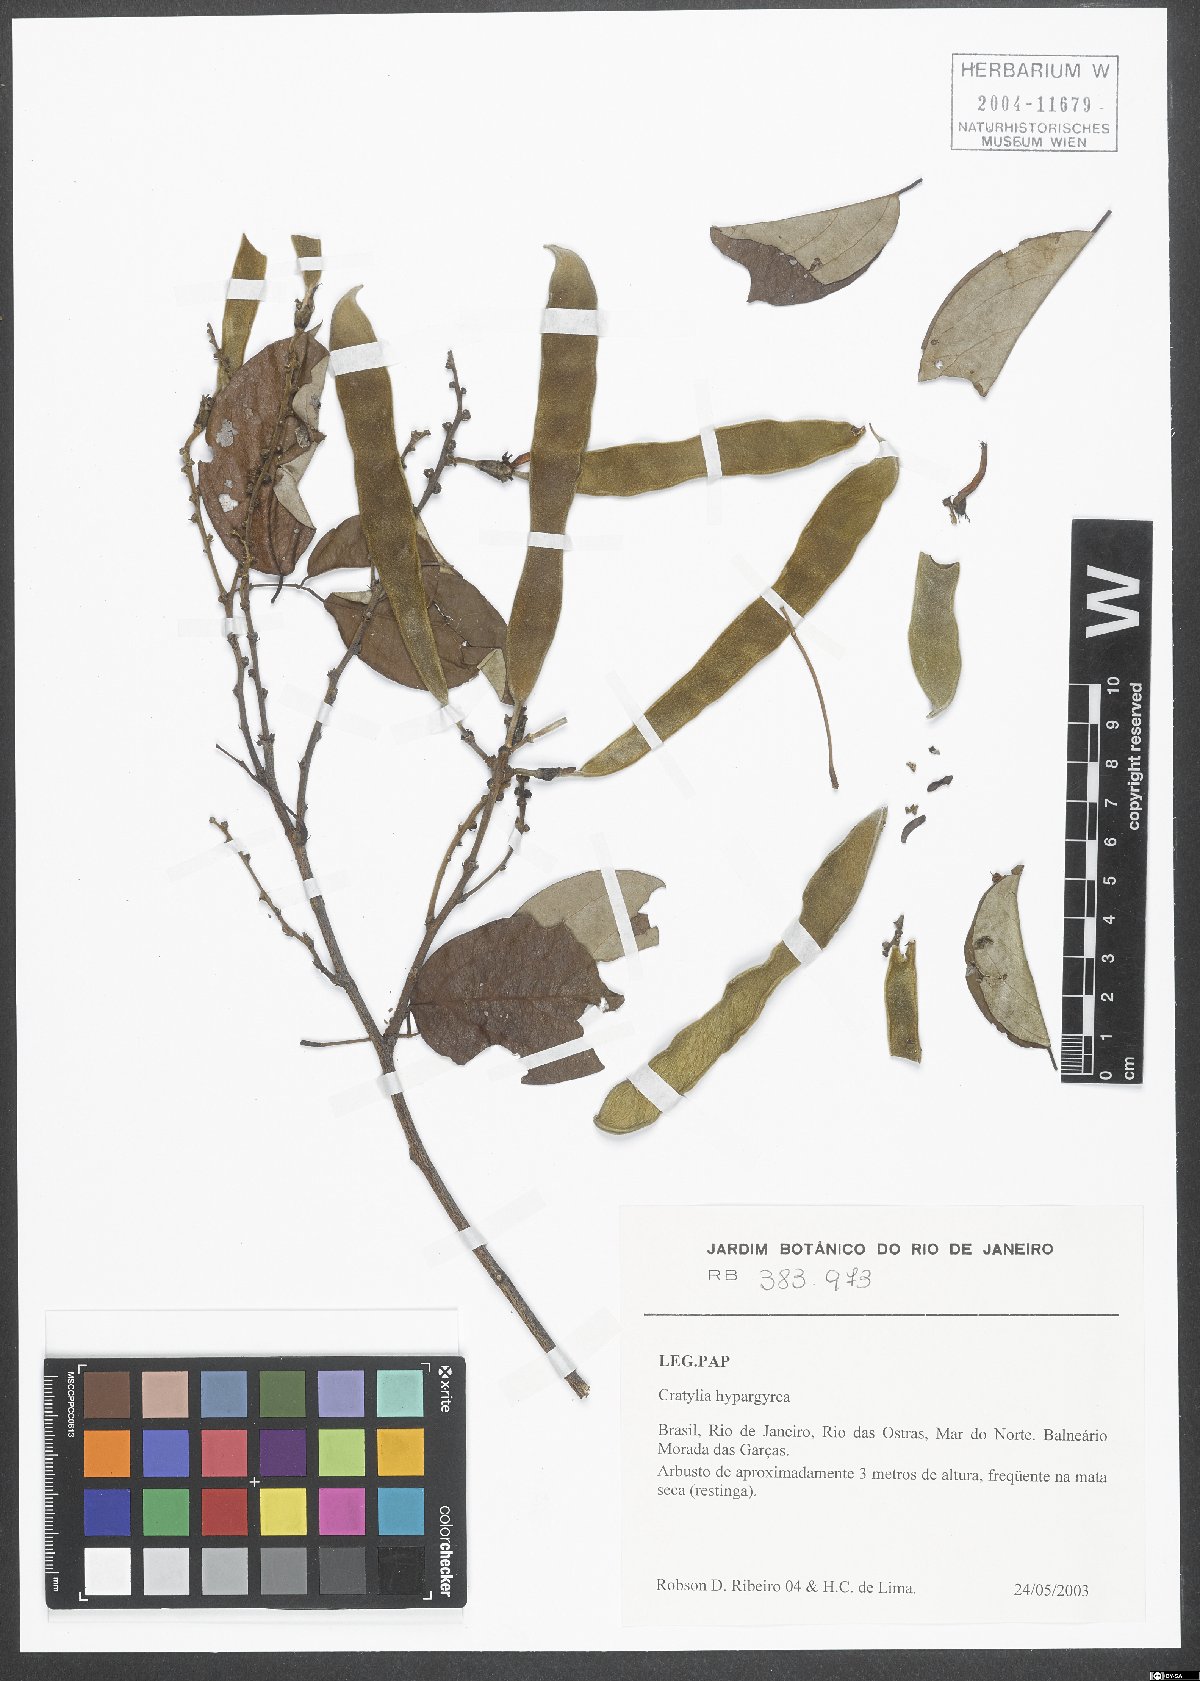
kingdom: Plantae
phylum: Tracheophyta
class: Magnoliopsida
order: Fabales
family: Fabaceae
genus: Cratylia
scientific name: Cratylia hypargyraea
